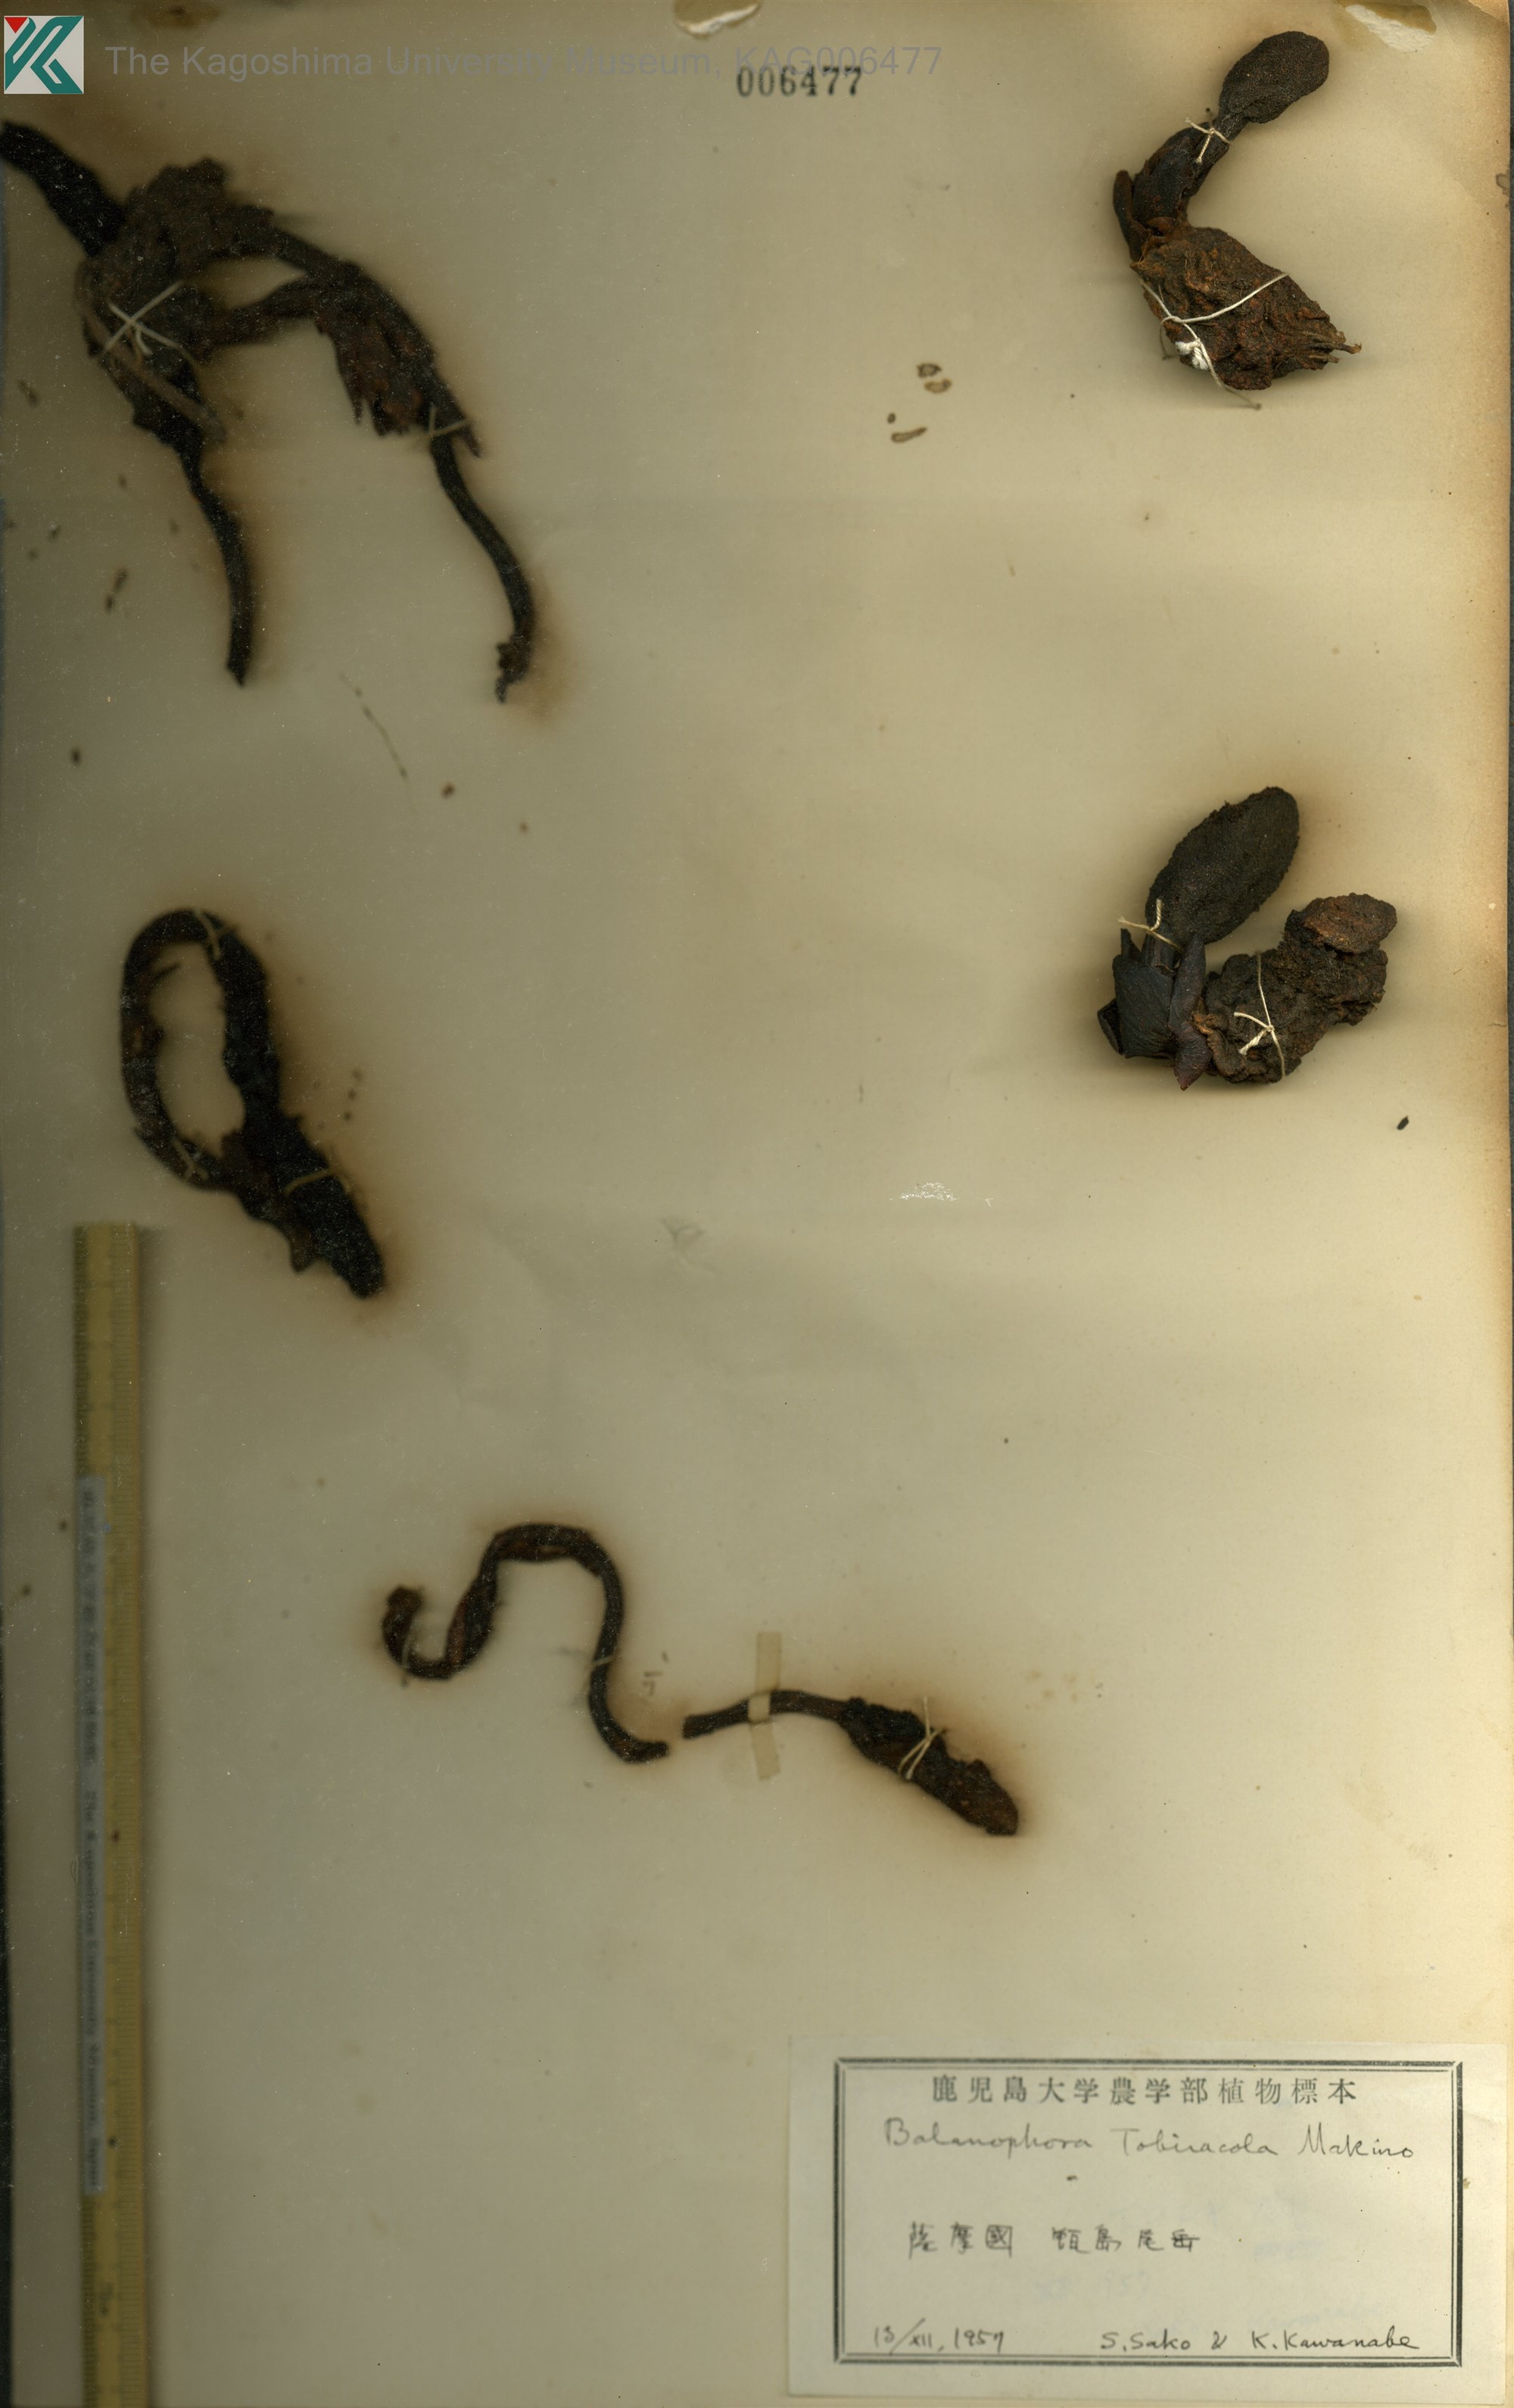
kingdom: Plantae
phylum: Tracheophyta
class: Magnoliopsida
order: Santalales
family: Balanophoraceae
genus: Balanophora
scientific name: Balanophora tobiracola
